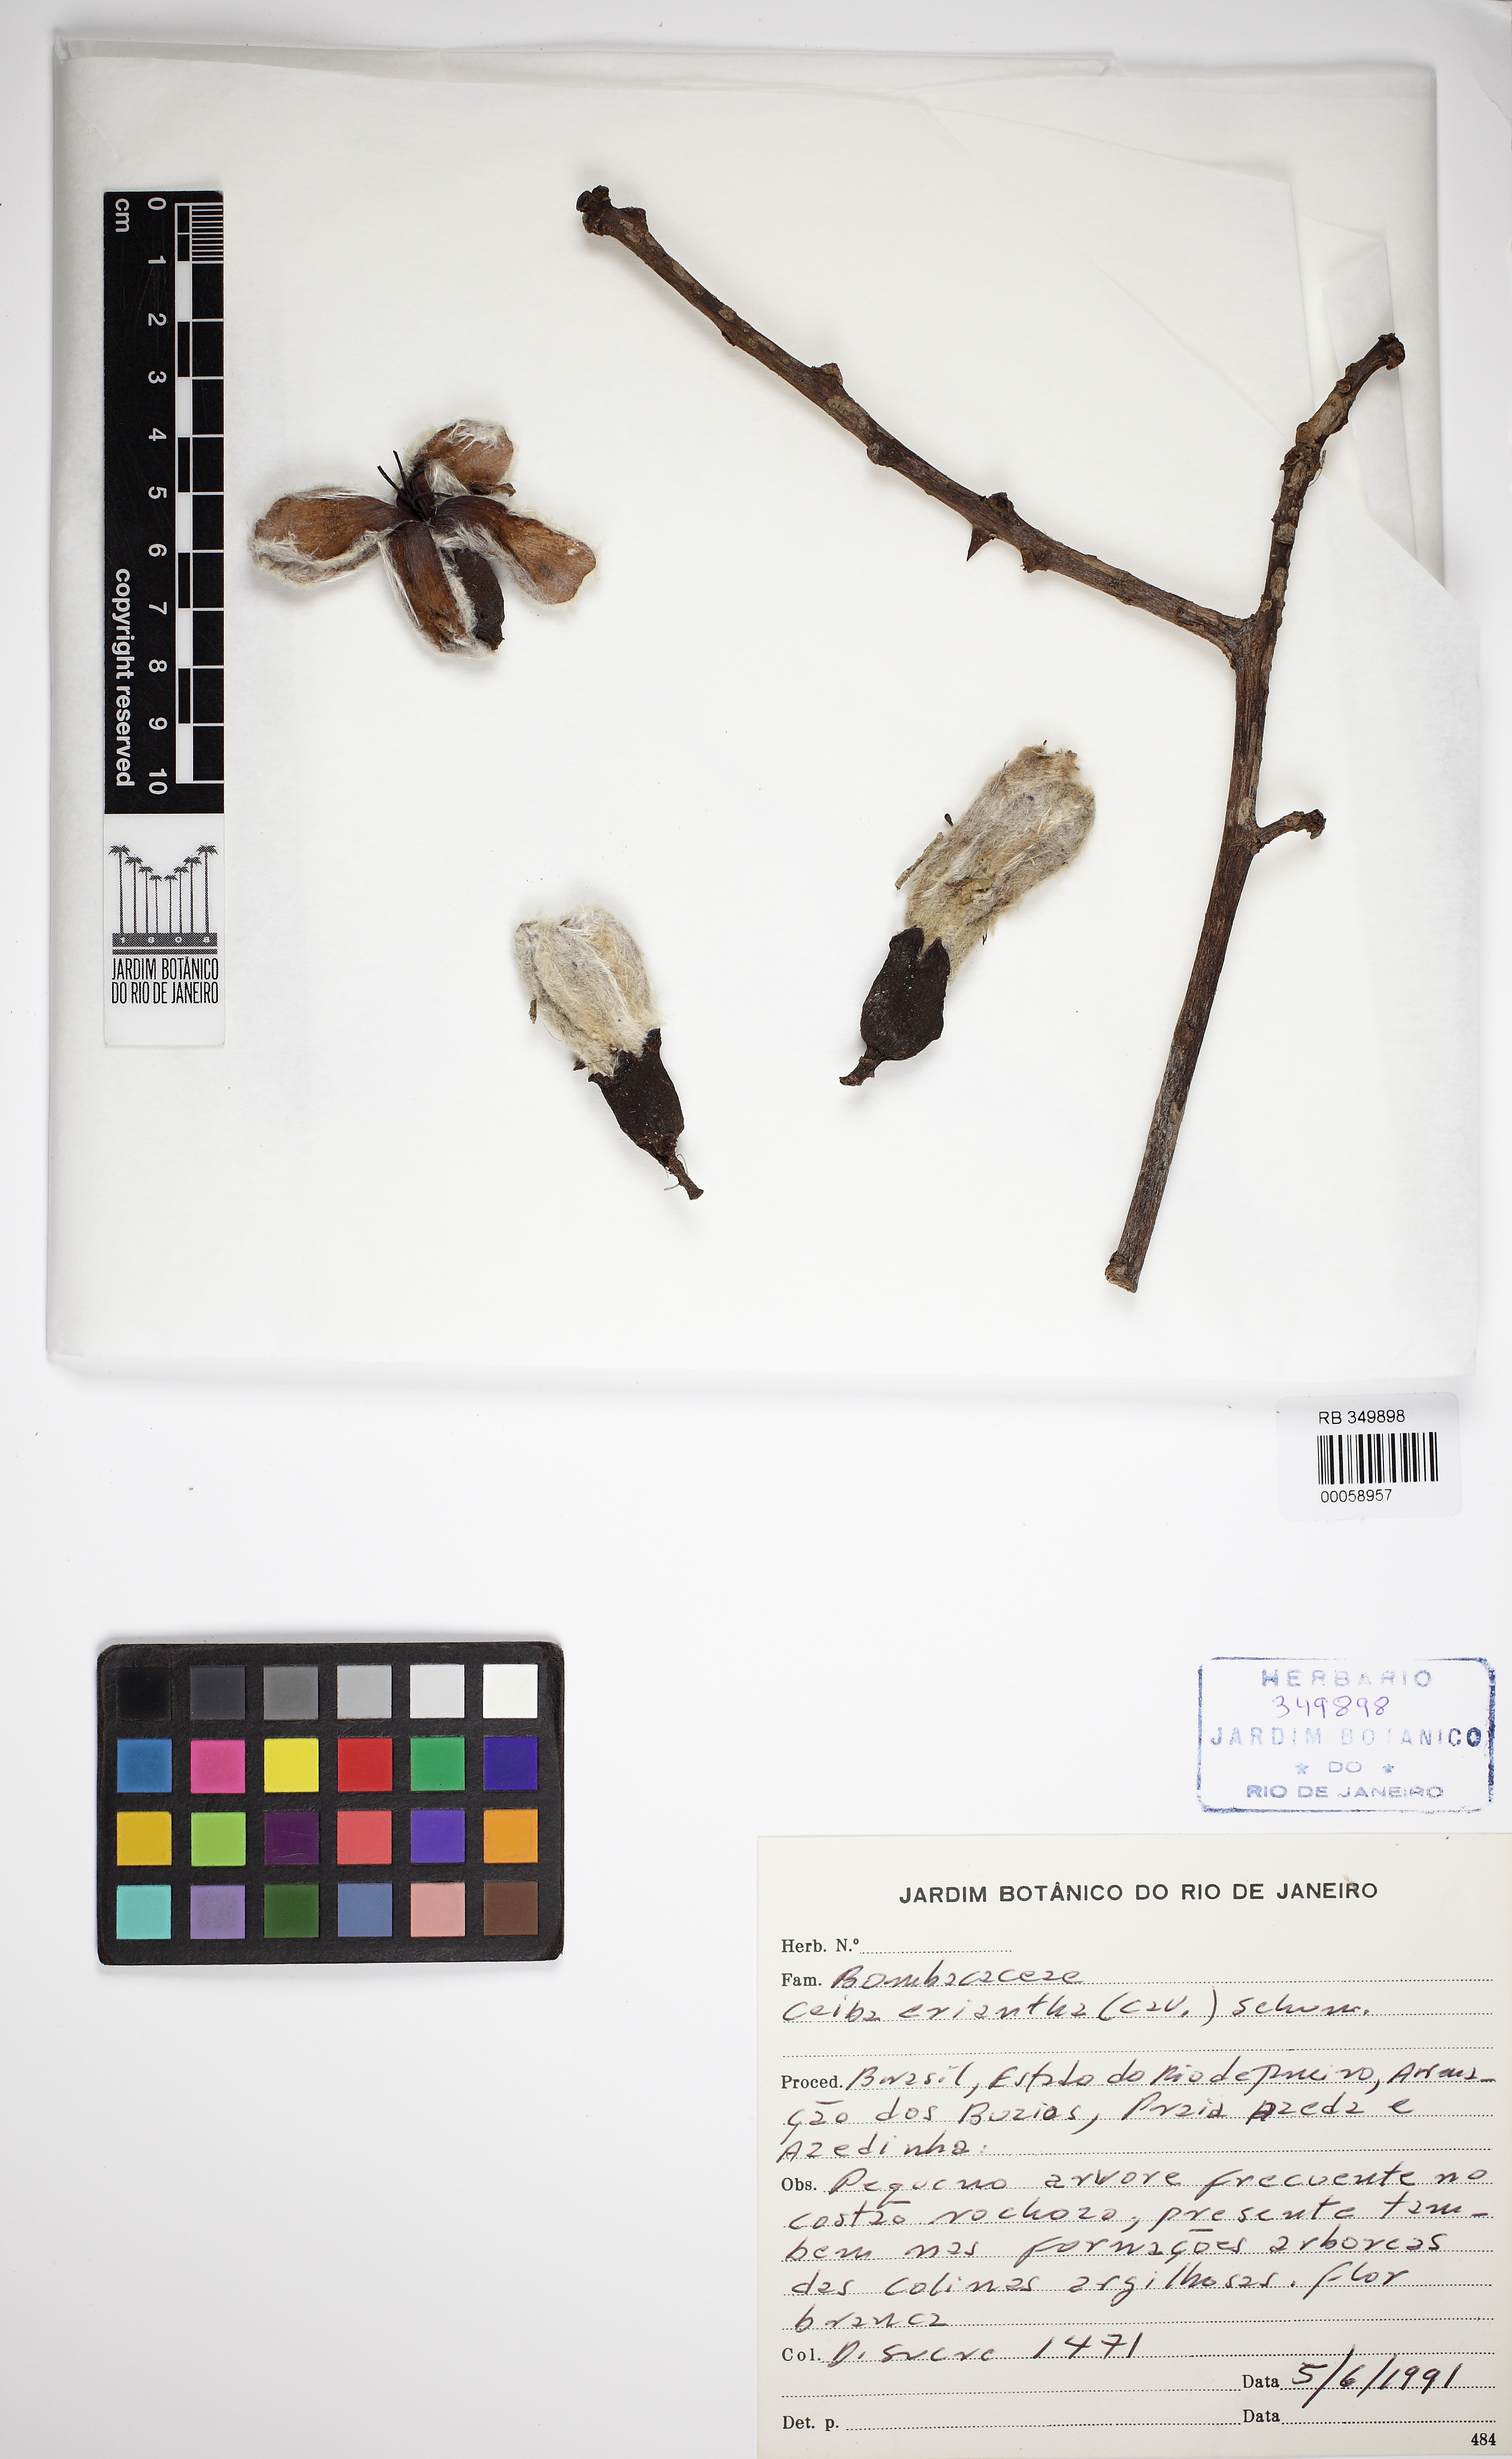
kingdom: Plantae
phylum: Tracheophyta
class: Magnoliopsida
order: Malvales
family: Malvaceae
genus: Ceiba
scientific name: Ceiba erianthos
